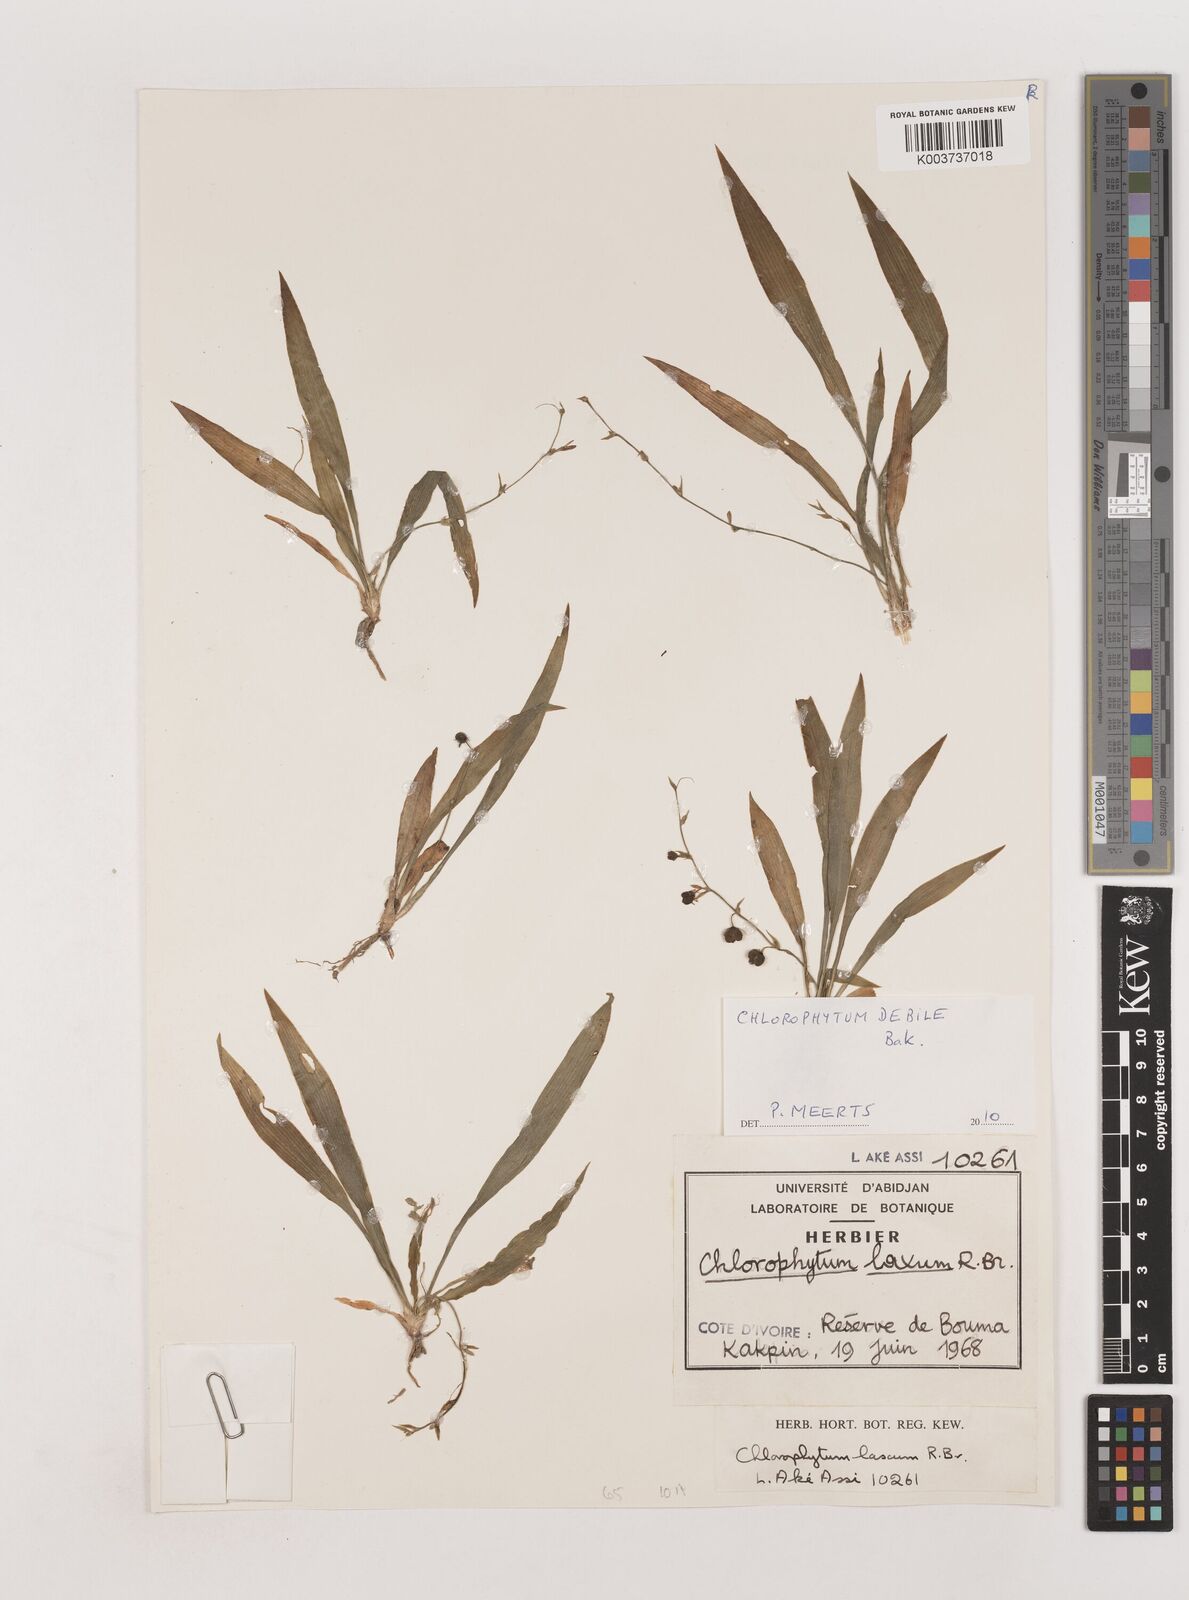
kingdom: Plantae
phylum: Tracheophyta
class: Liliopsida
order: Asparagales
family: Asparagaceae
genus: Chlorophytum
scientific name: Chlorophytum debile
